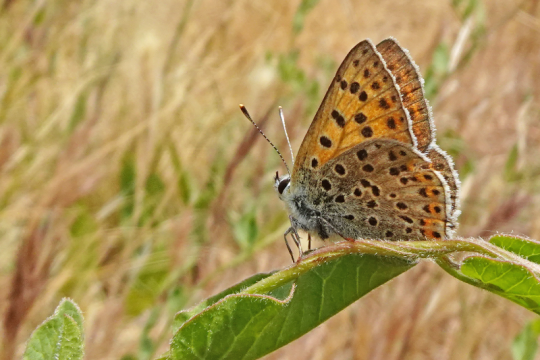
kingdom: Animalia
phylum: Arthropoda
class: Insecta
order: Lepidoptera
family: Lycaenidae
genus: Lycaena
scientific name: Lycaena bleusei
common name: Iberian Sooty Copper
